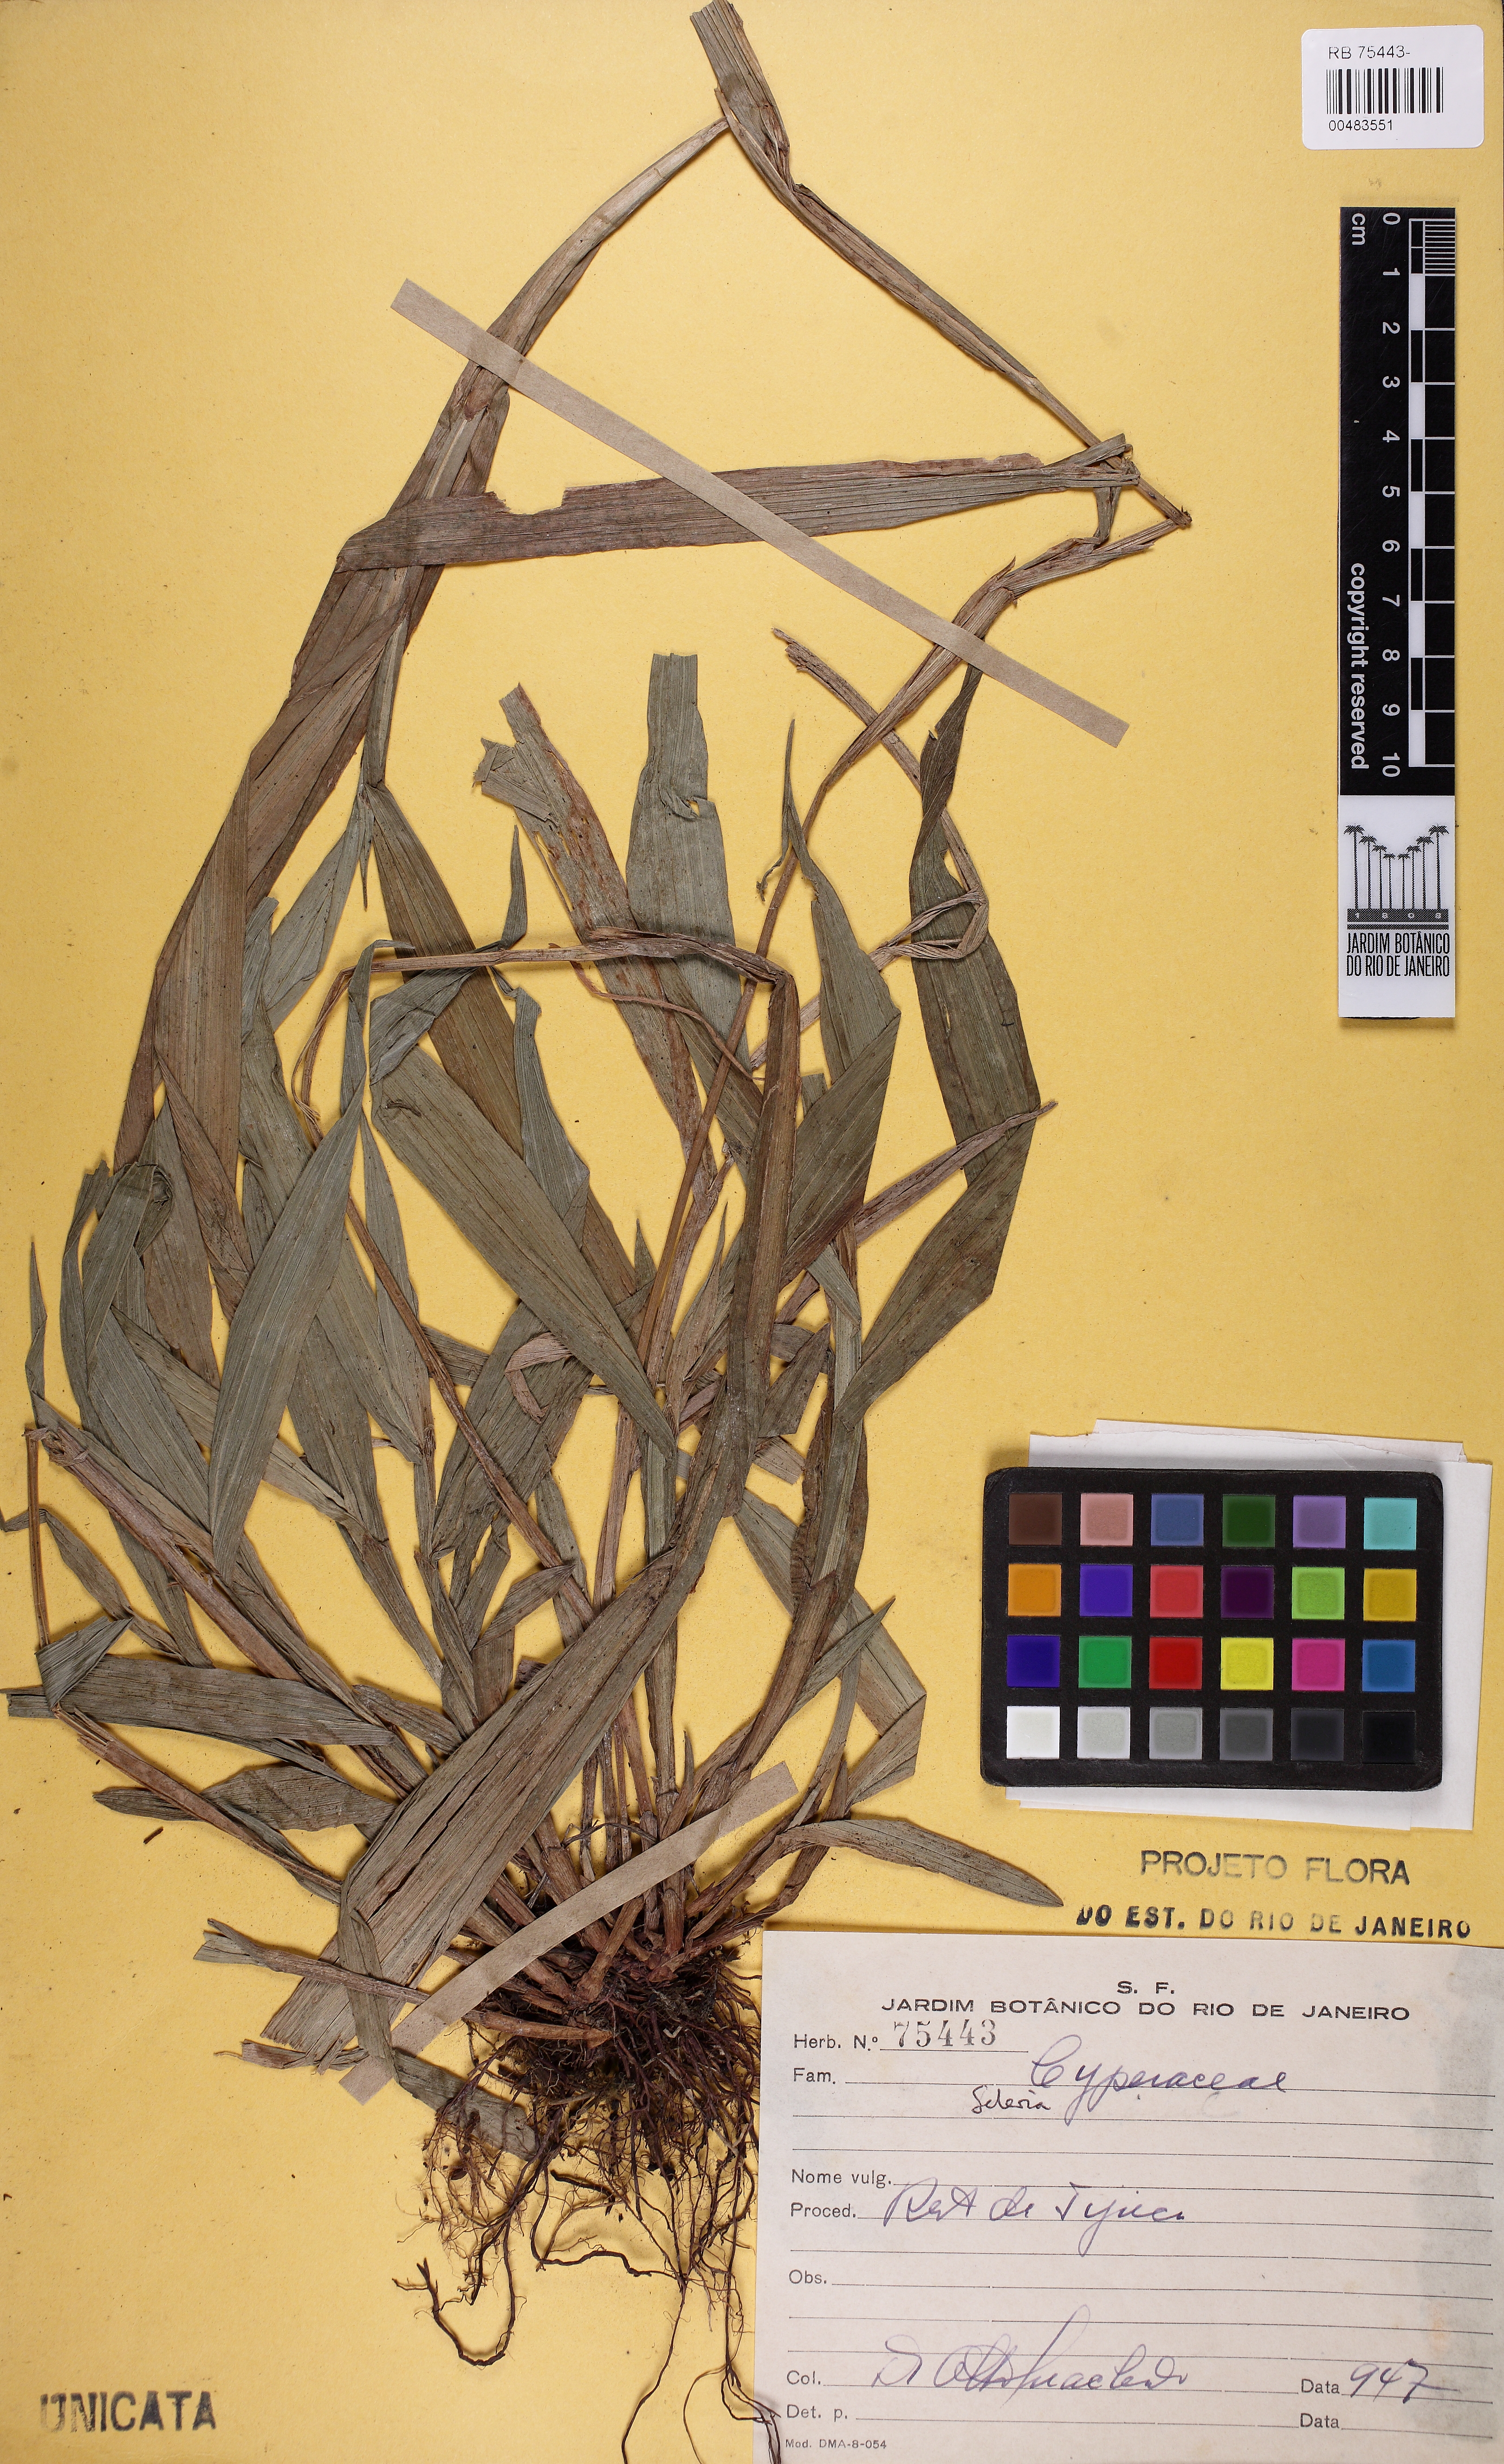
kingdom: Plantae
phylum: Tracheophyta
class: Liliopsida
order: Poales
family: Cyperaceae
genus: Scleria
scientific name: Scleria
